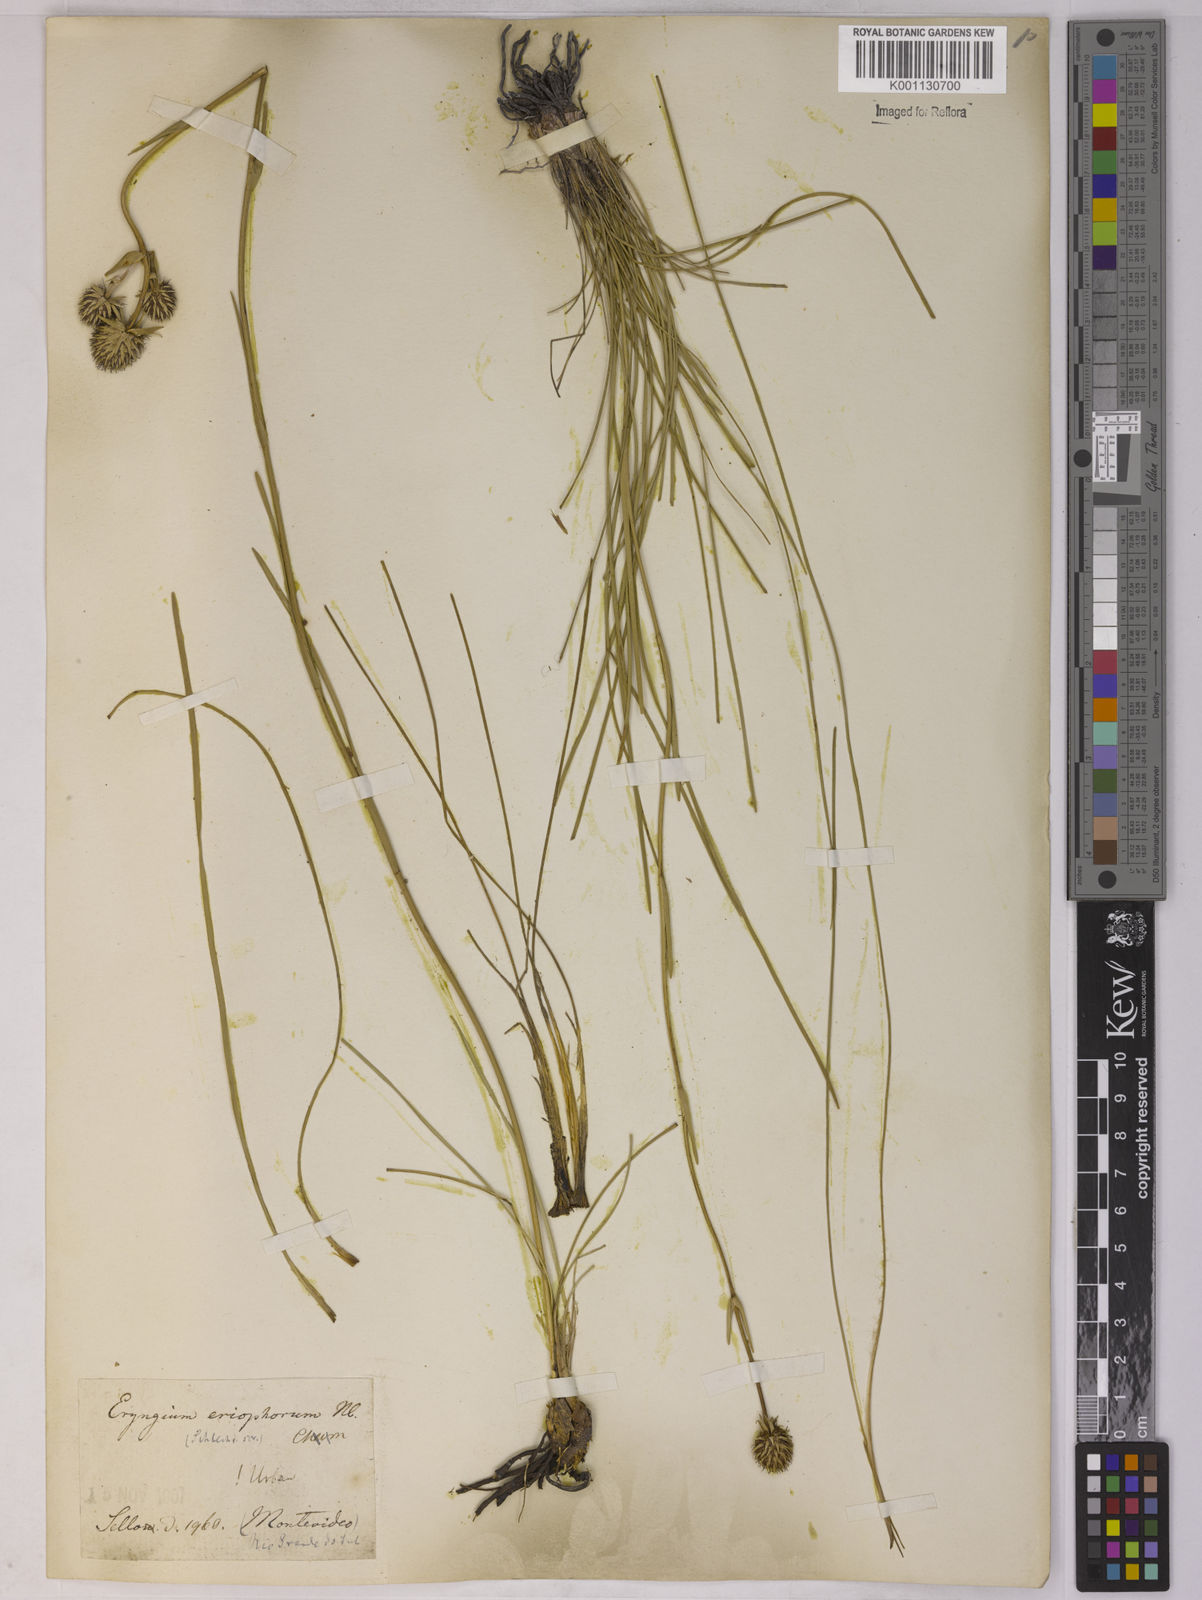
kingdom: Plantae
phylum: Tracheophyta
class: Magnoliopsida
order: Apiales
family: Apiaceae
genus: Eryngium
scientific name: Eryngium eriophorum
